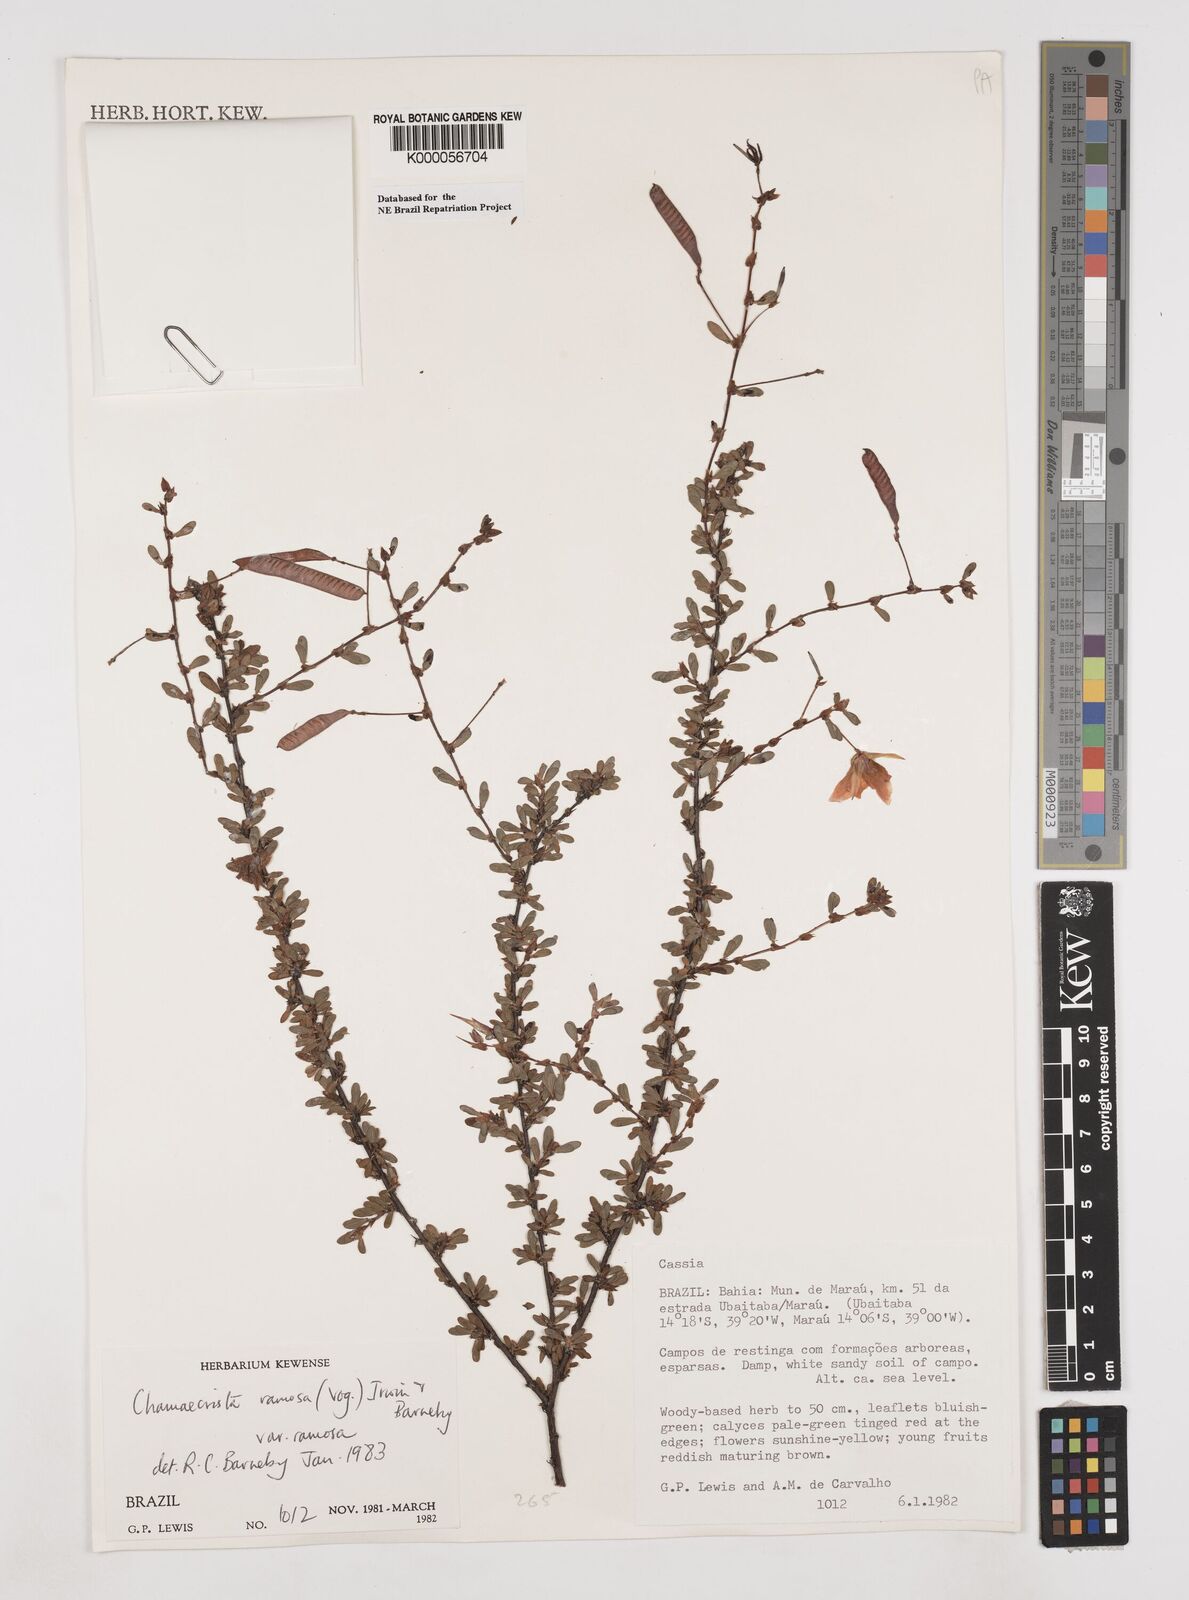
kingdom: Plantae
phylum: Tracheophyta
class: Magnoliopsida
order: Fabales
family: Fabaceae
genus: Chamaecrista
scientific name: Chamaecrista ramosa
